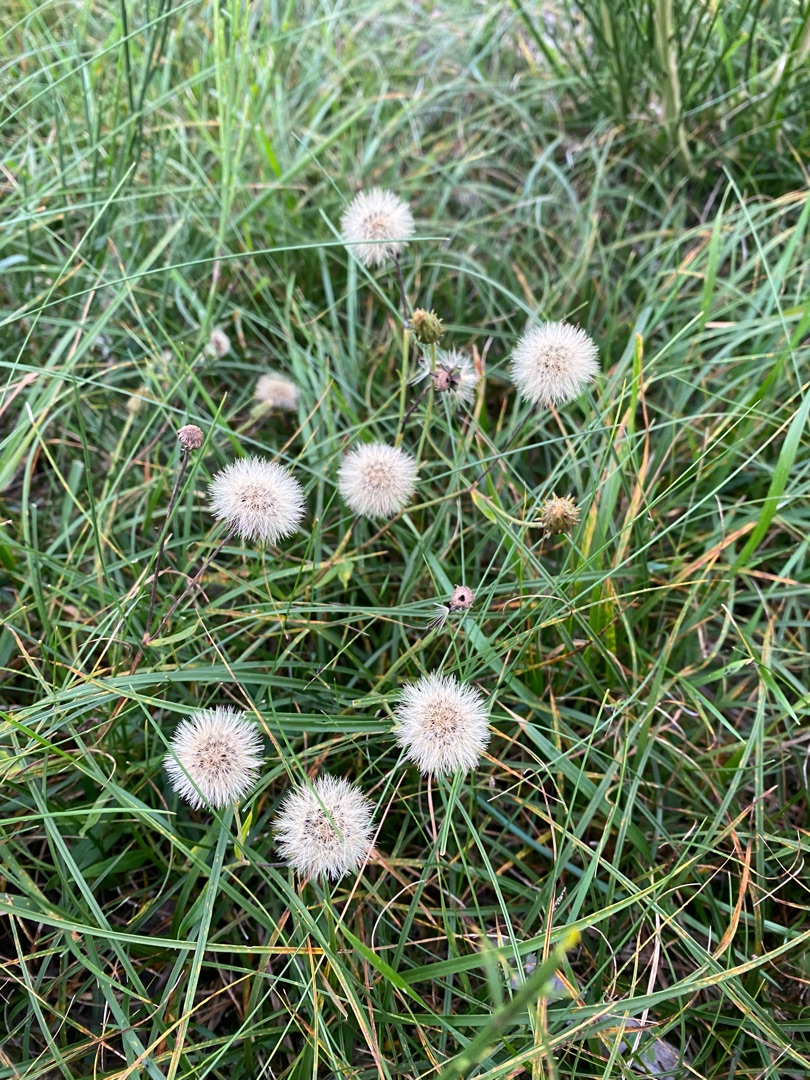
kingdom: Plantae
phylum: Tracheophyta
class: Magnoliopsida
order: Asterales
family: Asteraceae
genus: Hieracium
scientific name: Hieracium umbellatum
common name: Smalbladet høgeurt
